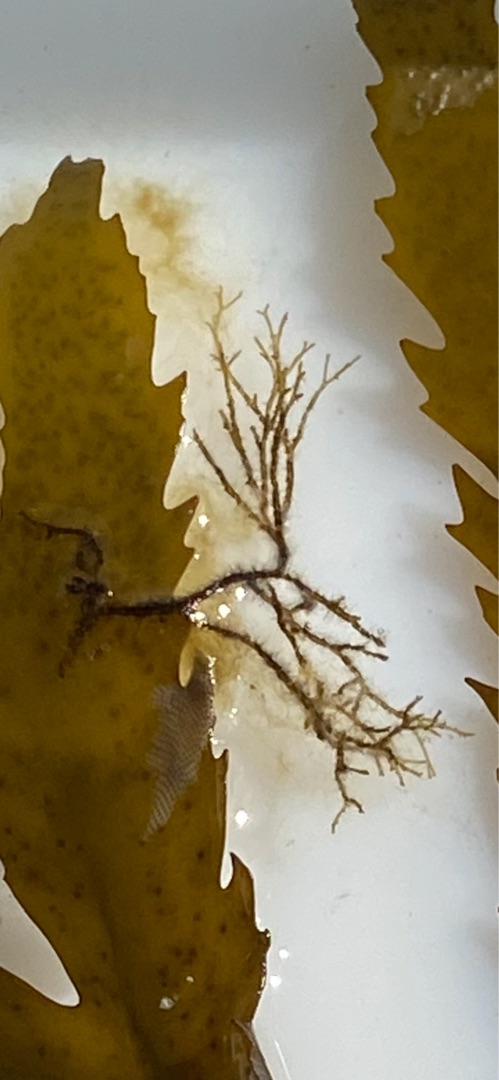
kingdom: Chromista
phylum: Ochrophyta
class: Phaeophyceae
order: Ectocarpales
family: Chordariaceae
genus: Stilophora
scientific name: Stilophora tenella
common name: Ru fregnetang
